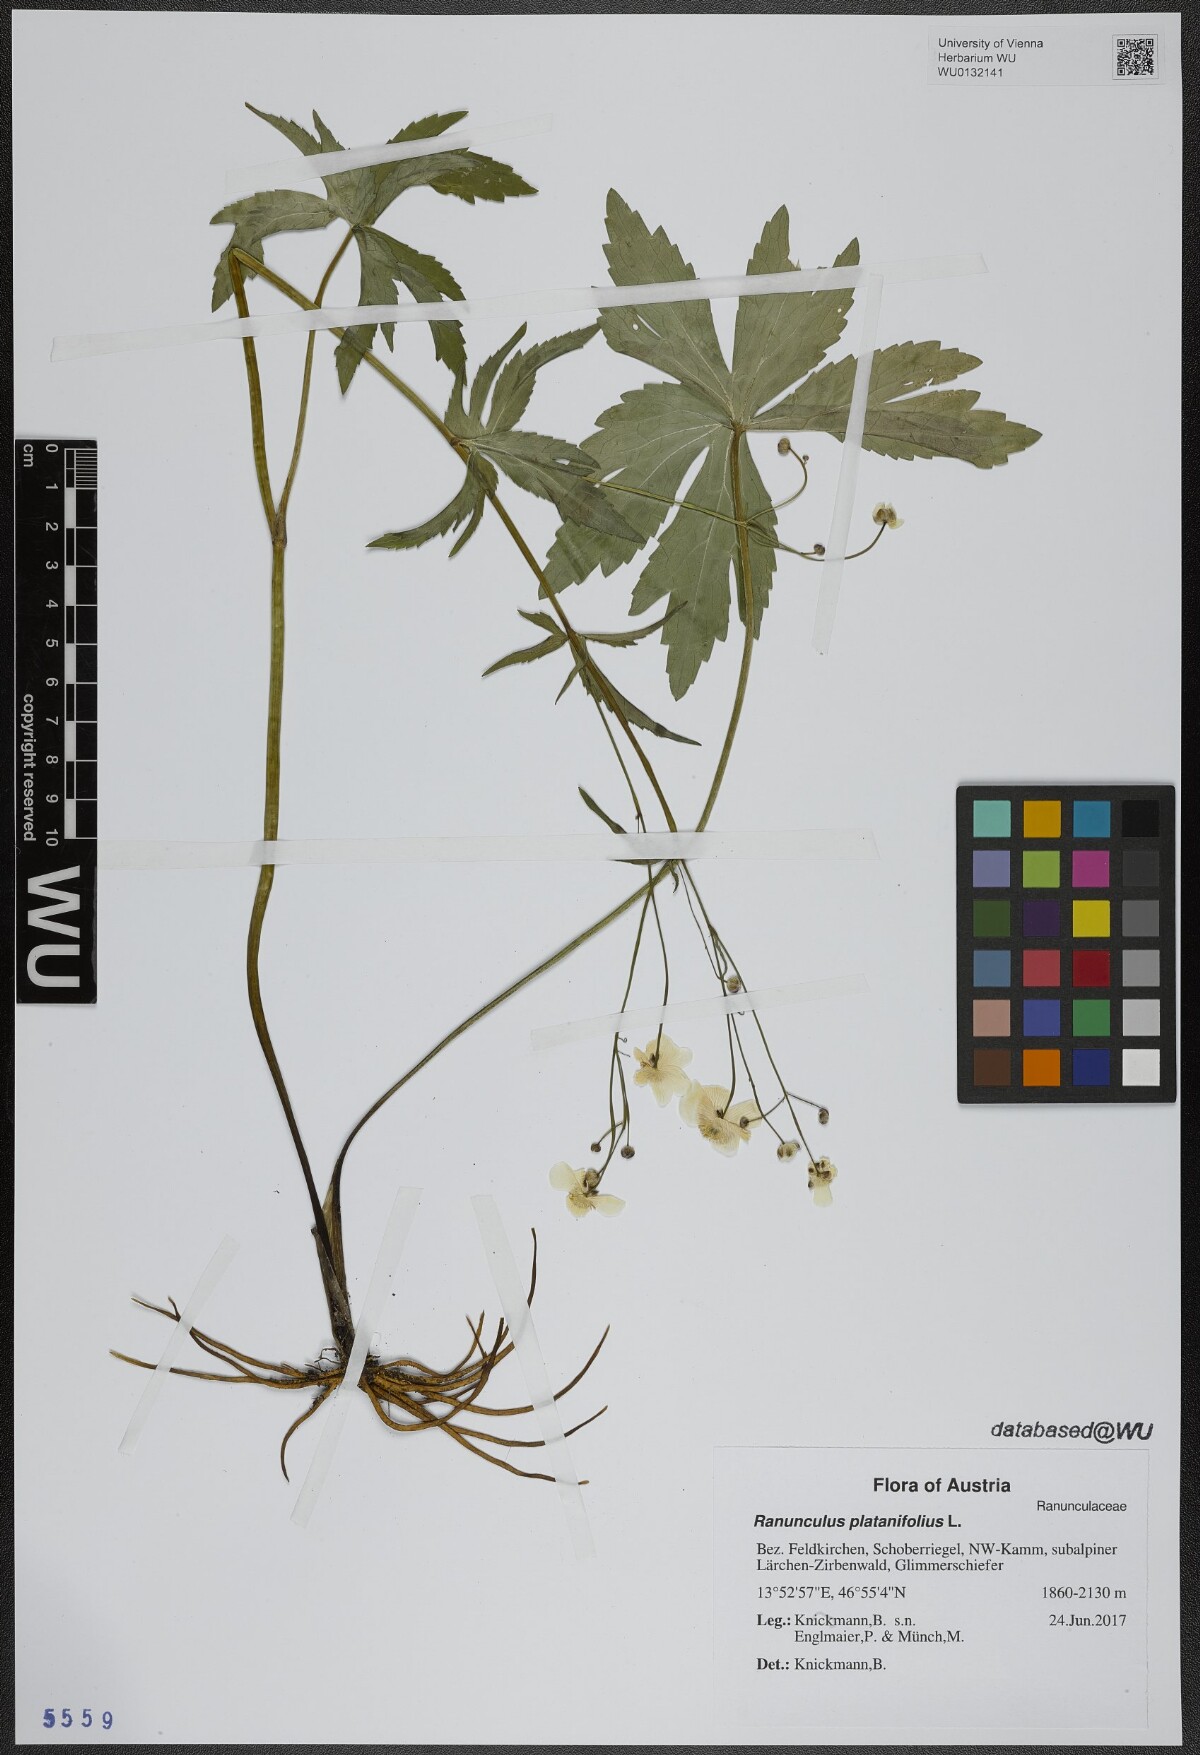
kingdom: Plantae
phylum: Tracheophyta
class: Magnoliopsida
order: Ranunculales
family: Ranunculaceae
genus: Ranunculus
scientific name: Ranunculus platanifolius
